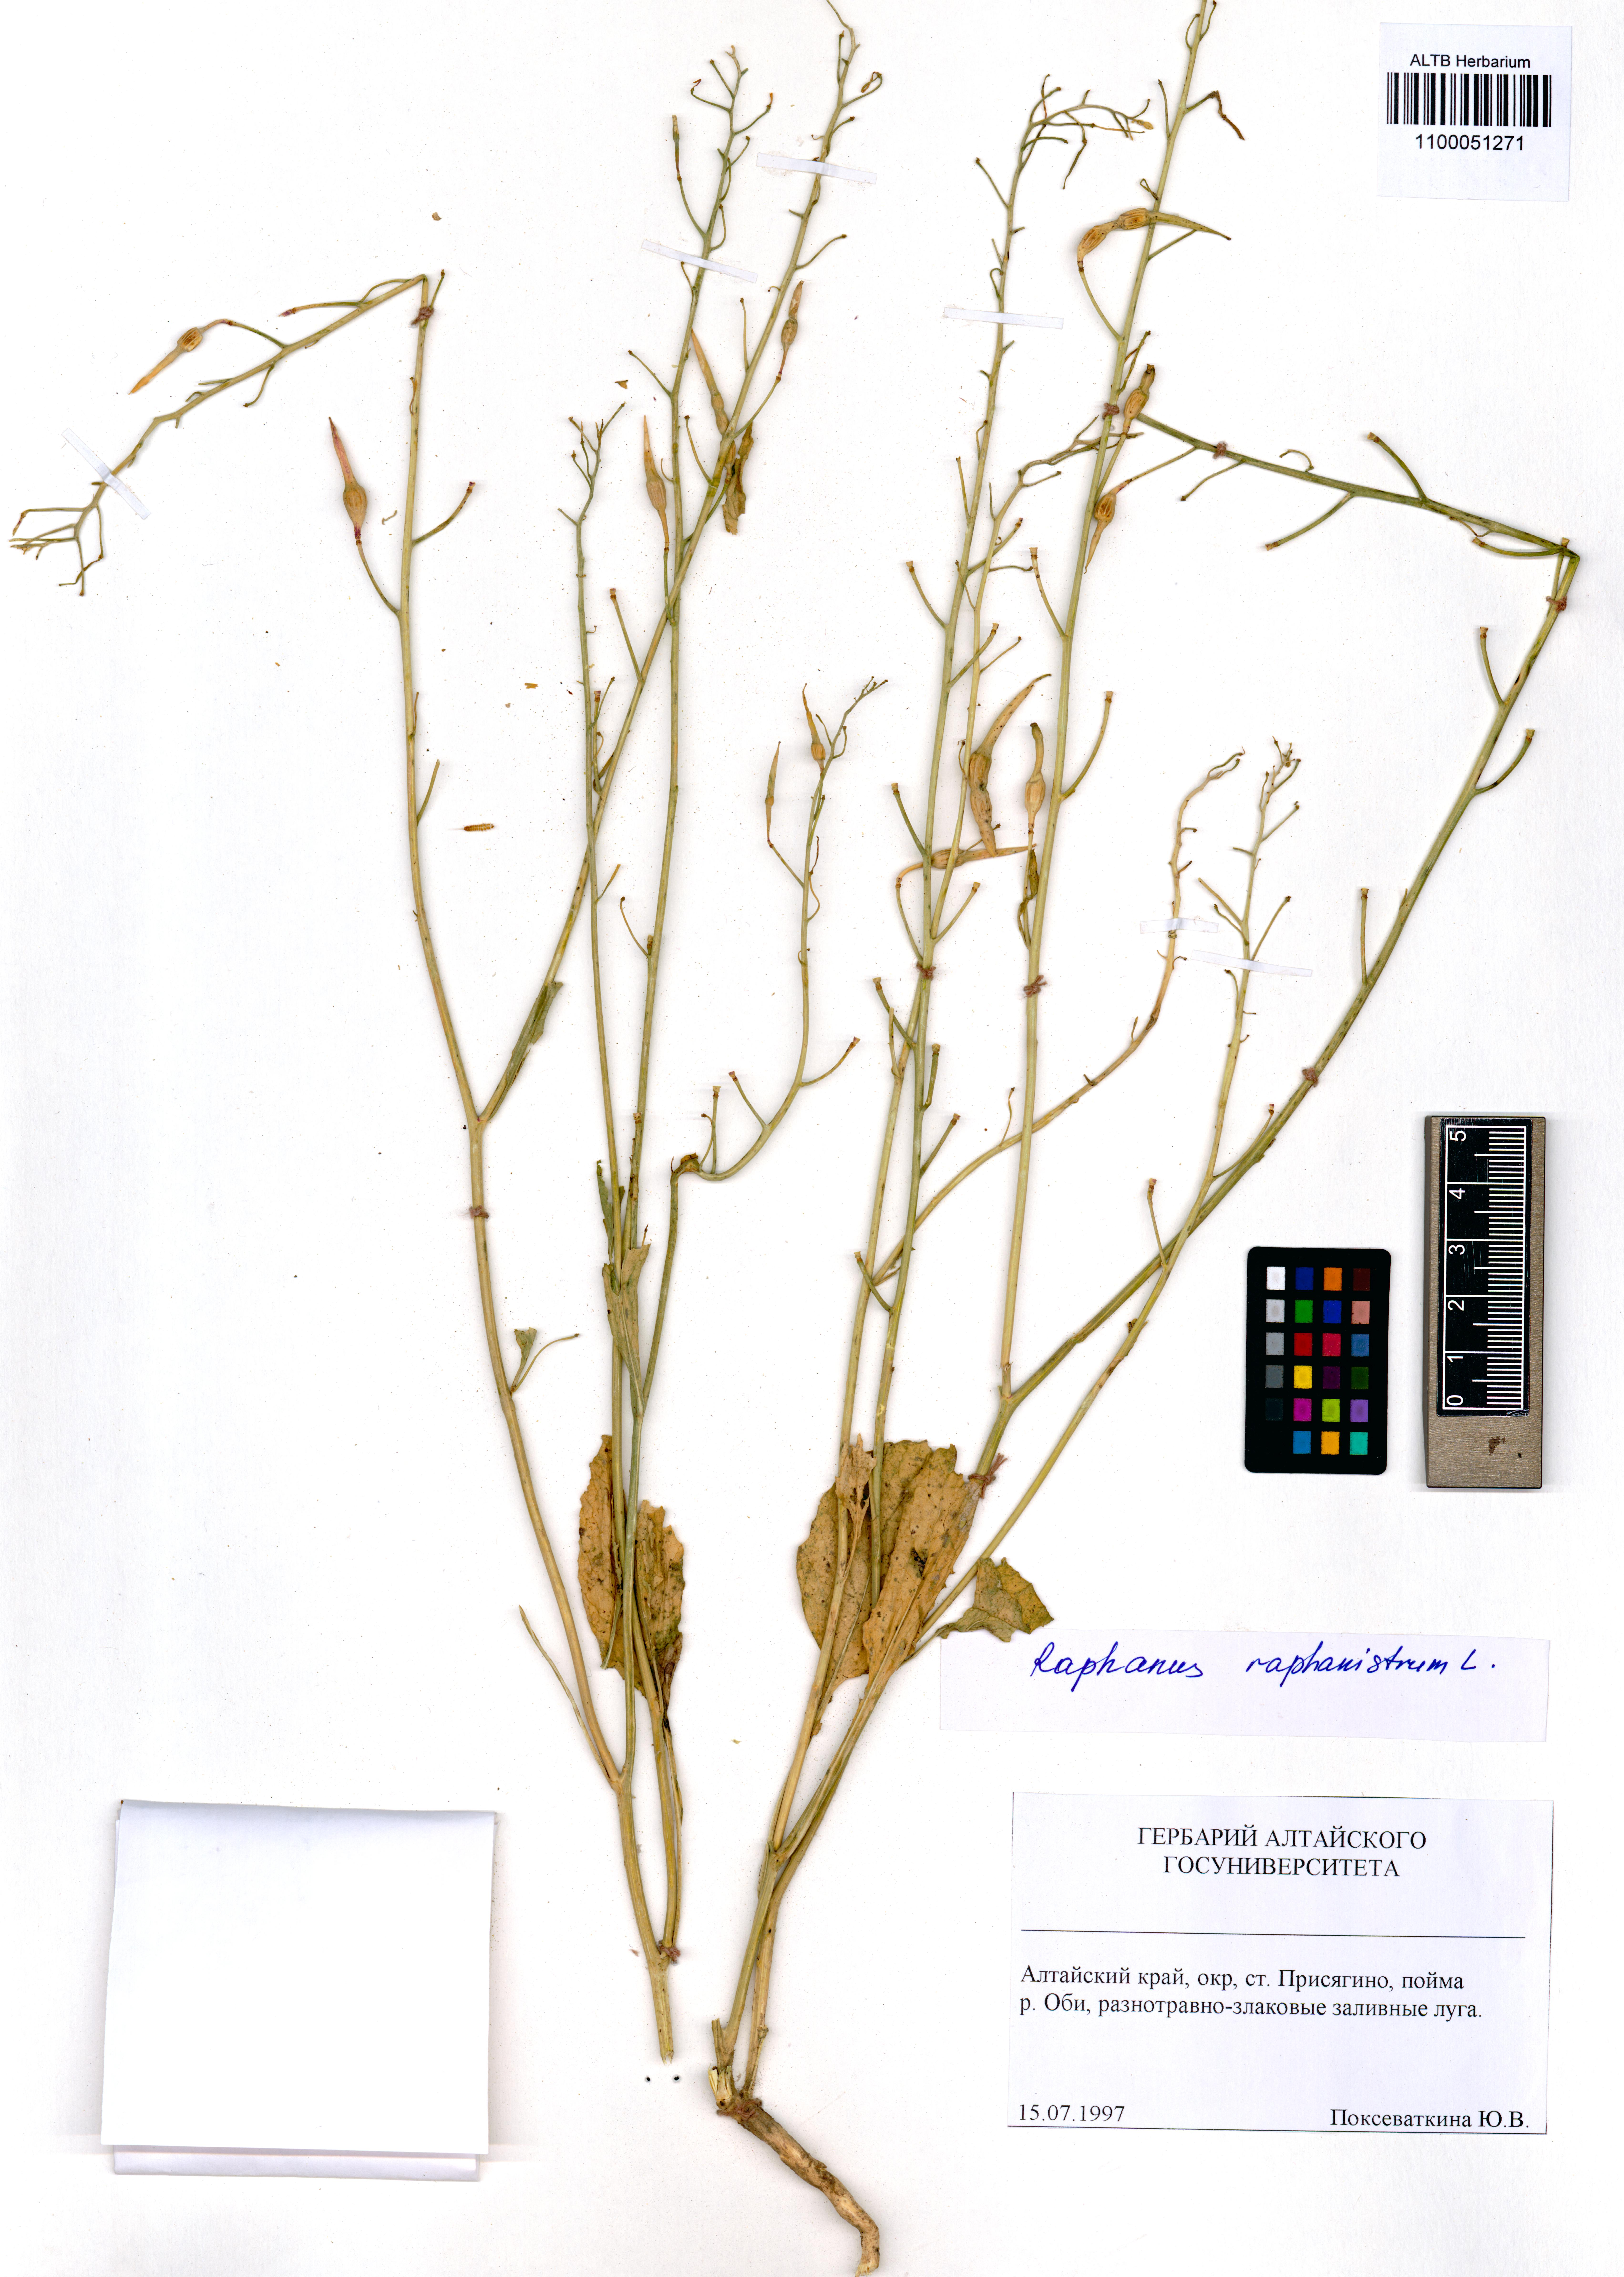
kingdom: Plantae
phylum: Tracheophyta
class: Magnoliopsida
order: Brassicales
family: Brassicaceae
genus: Raphanus
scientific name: Raphanus raphanistrum
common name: Wild radish
